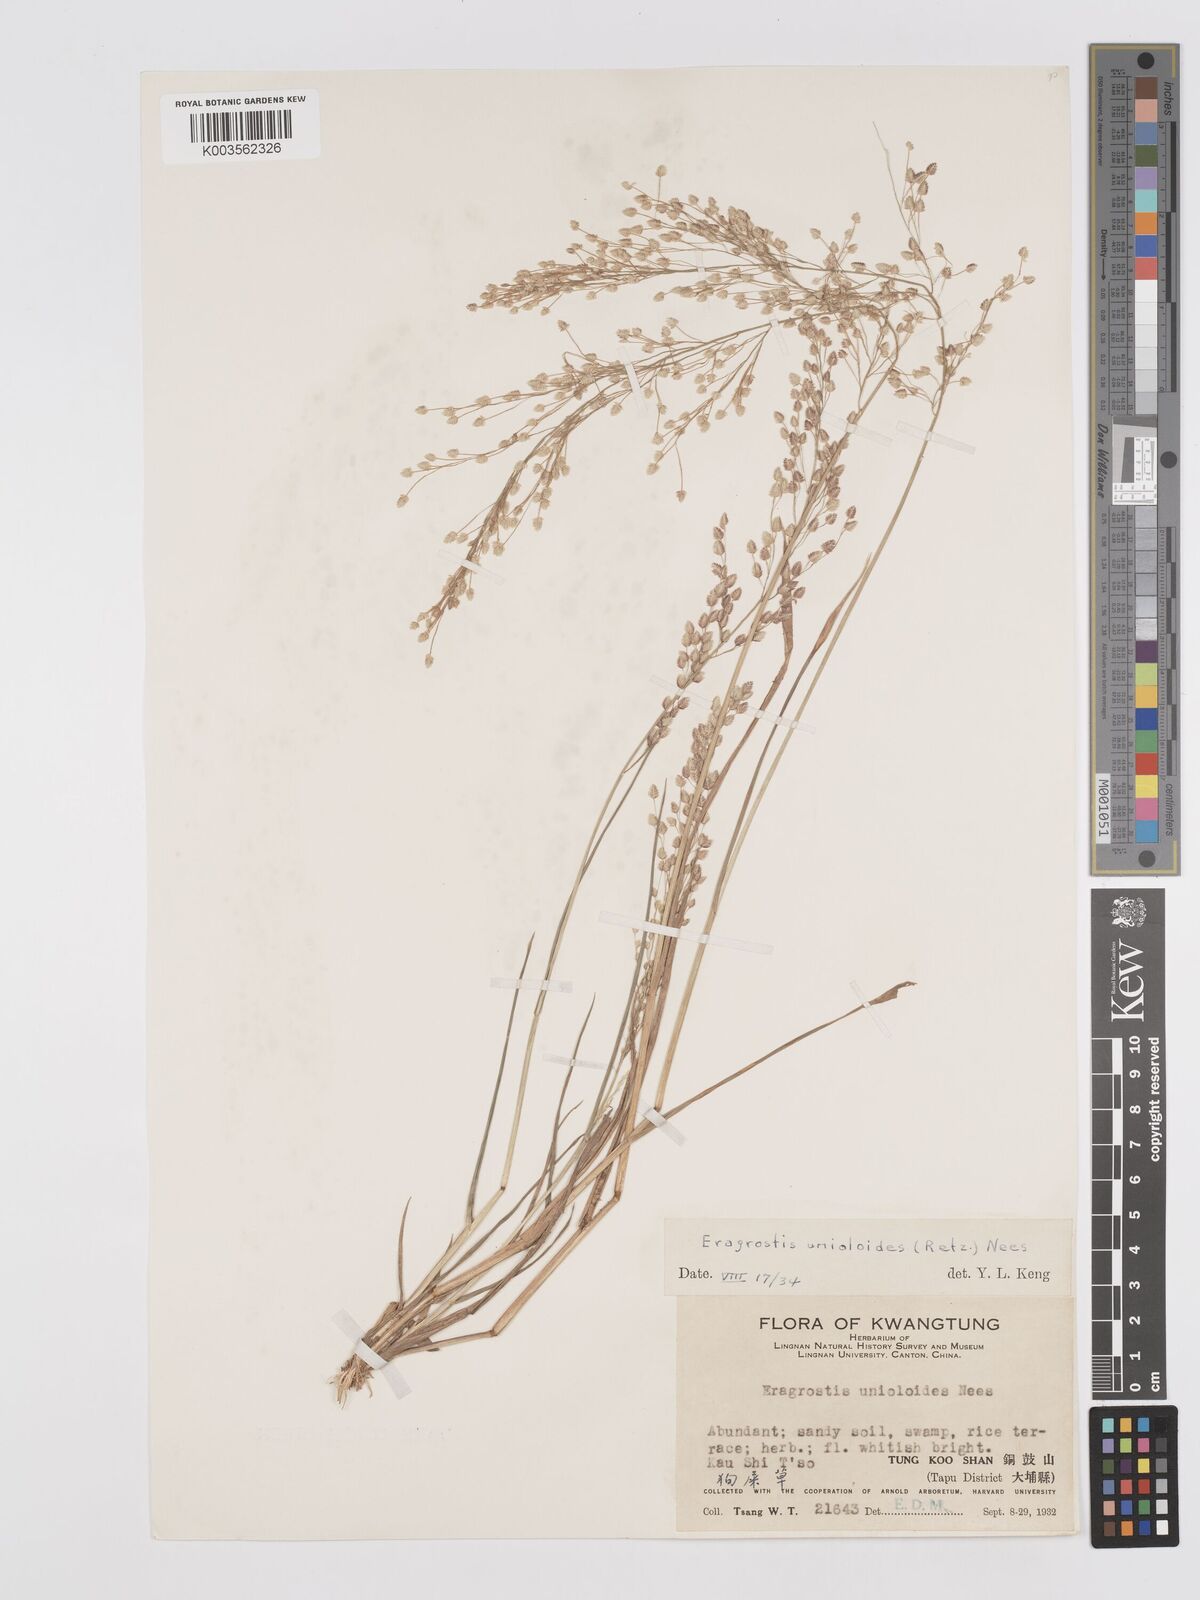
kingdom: Plantae
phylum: Tracheophyta
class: Liliopsida
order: Poales
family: Poaceae
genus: Eragrostis
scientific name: Eragrostis unioloides
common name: Chinese lovegrass
